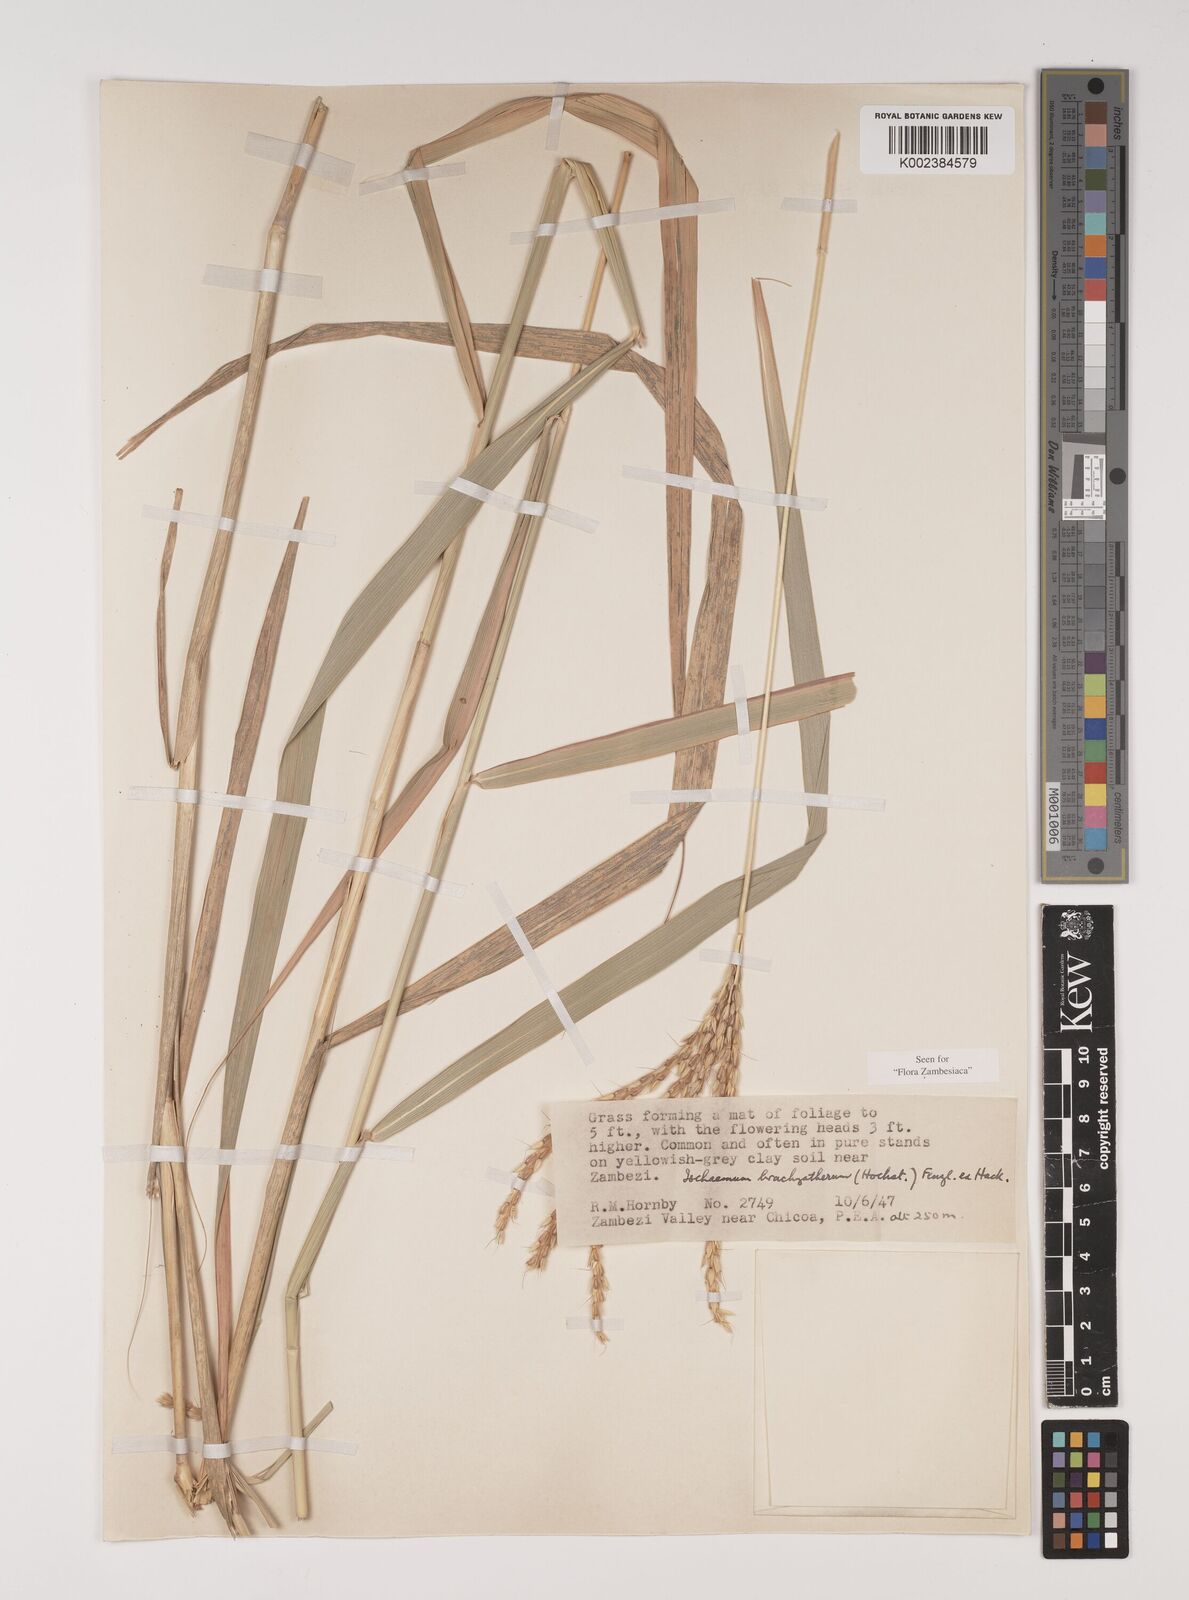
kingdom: Plantae
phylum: Tracheophyta
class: Liliopsida
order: Poales
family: Poaceae
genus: Ischaemum
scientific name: Ischaemum afrum
